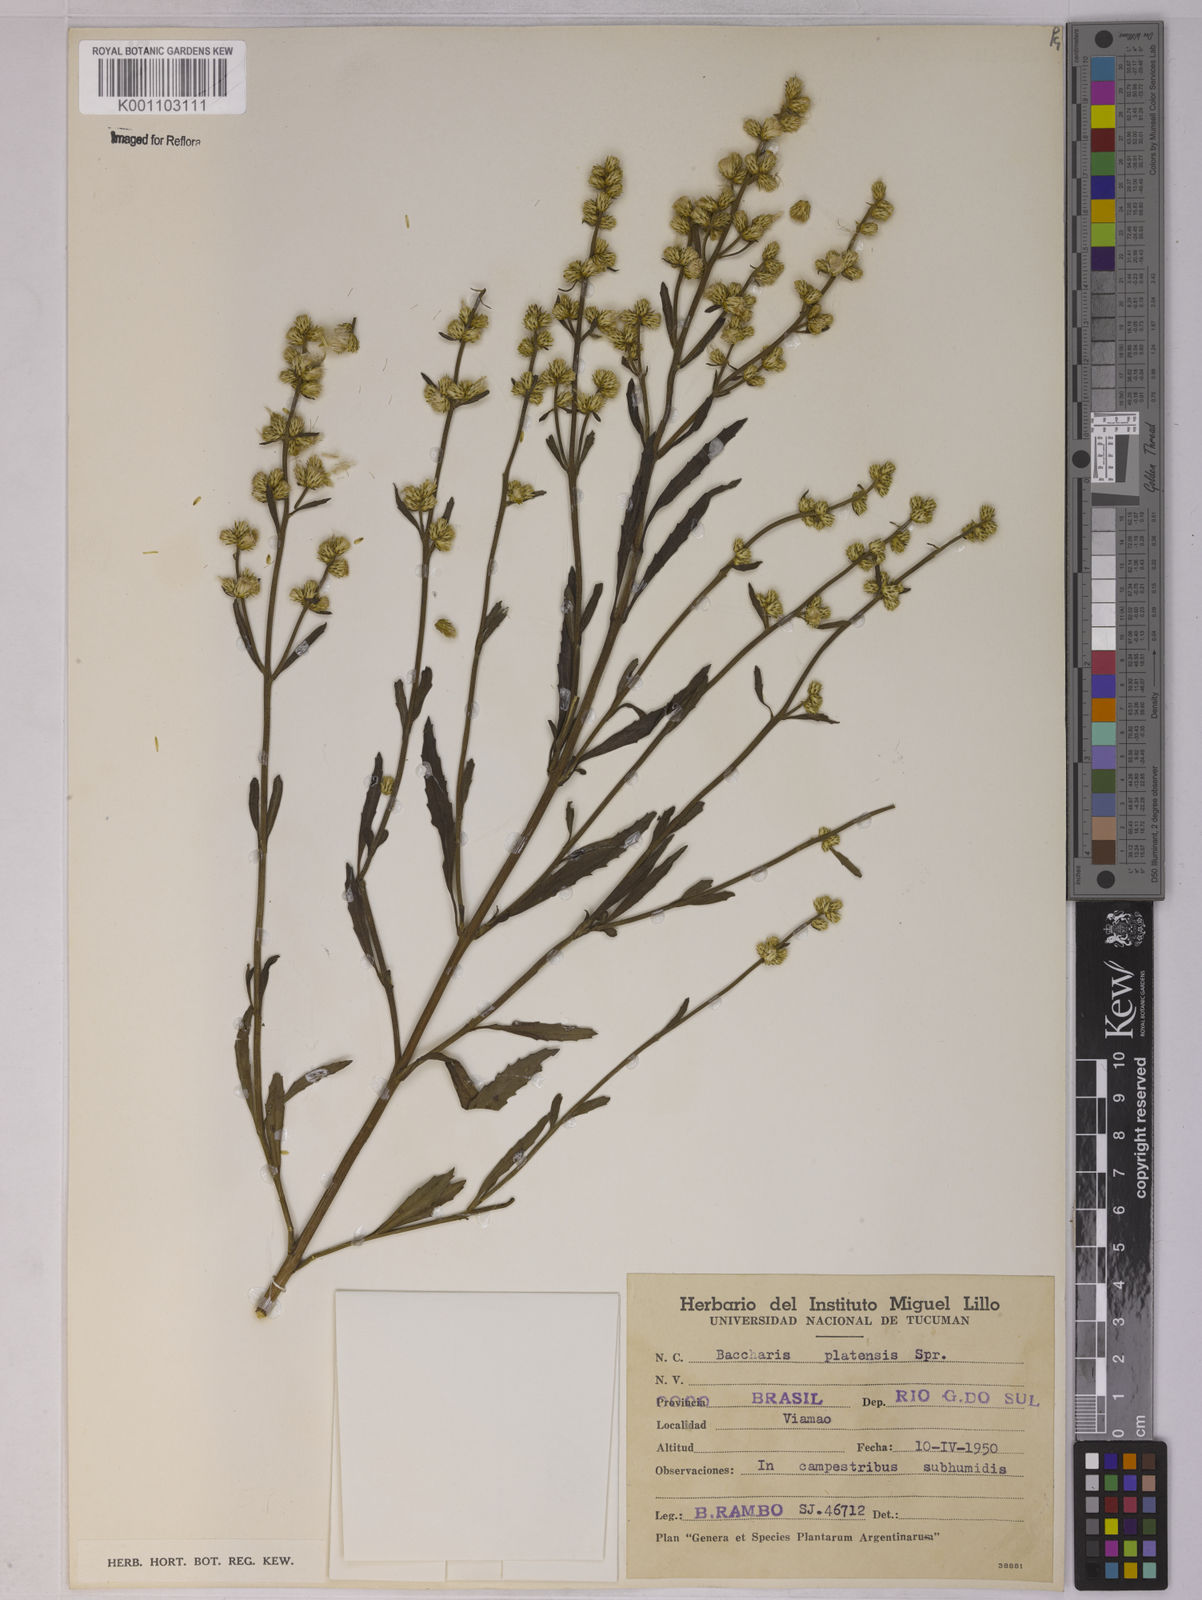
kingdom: Plantae
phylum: Tracheophyta
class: Magnoliopsida
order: Asterales
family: Asteraceae
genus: Baccharis
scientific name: Baccharis spicata
